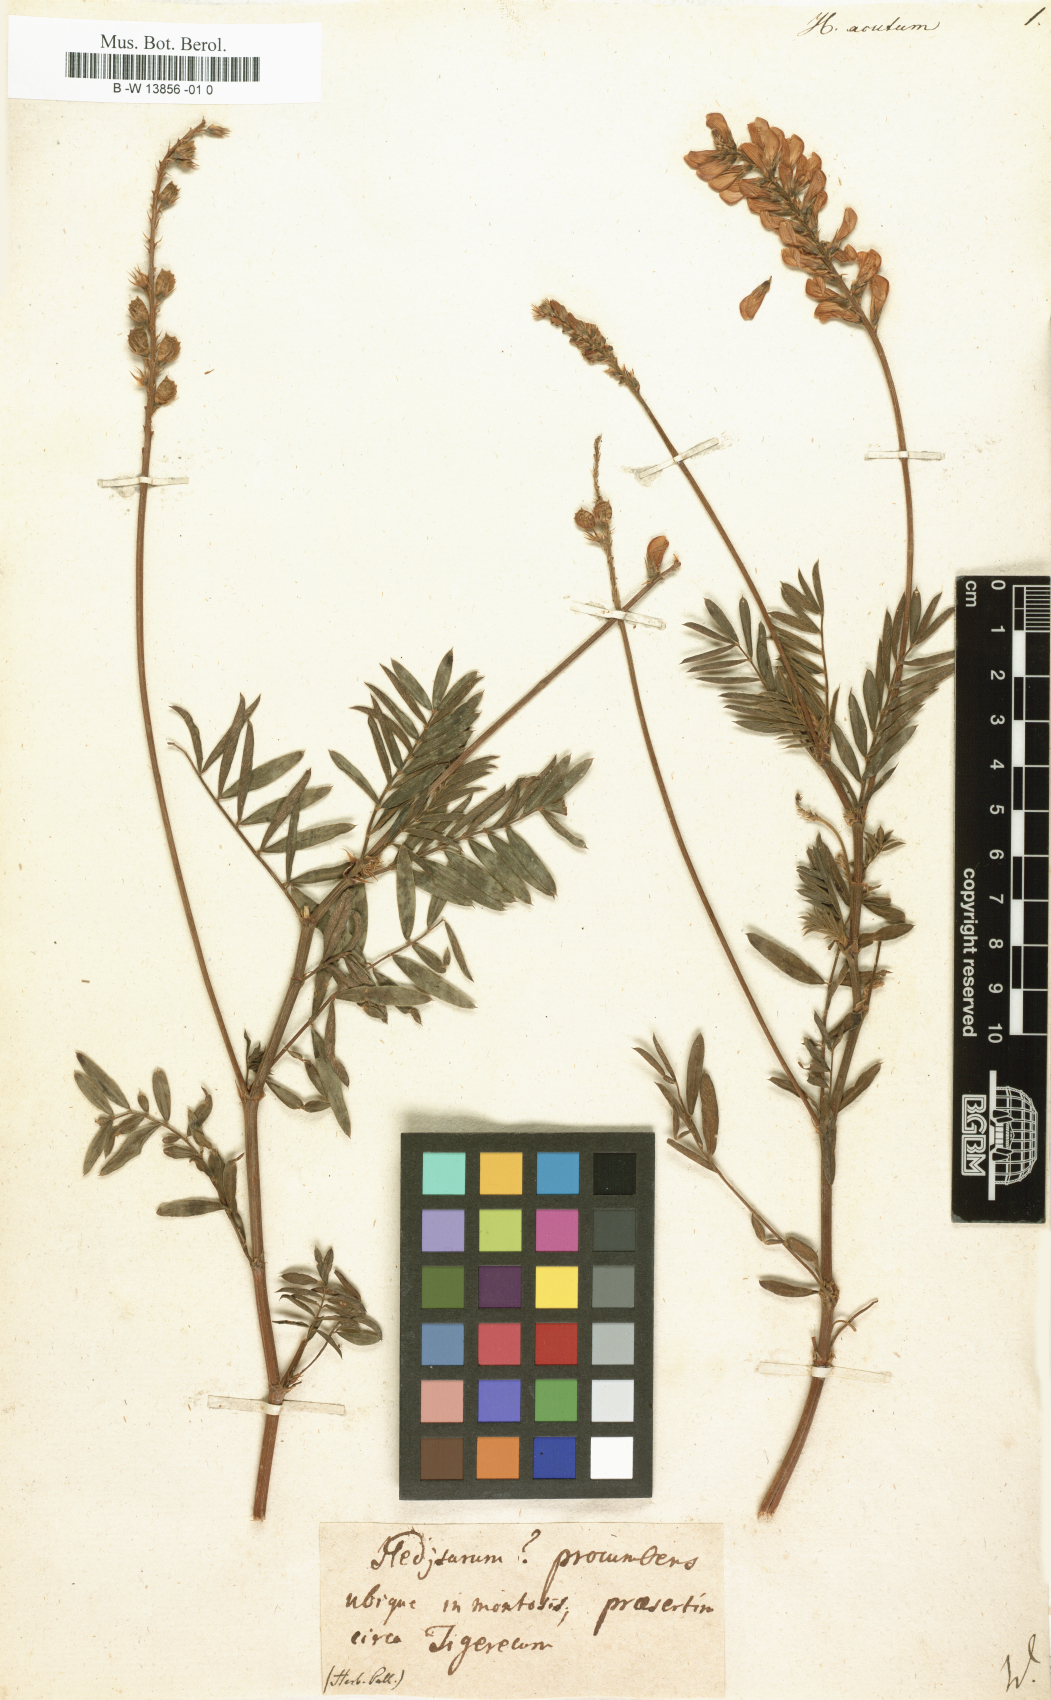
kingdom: Plantae
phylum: Tracheophyta
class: Magnoliopsida
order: Fabales
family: Fabaceae
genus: Hedysarum
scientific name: Hedysarum
